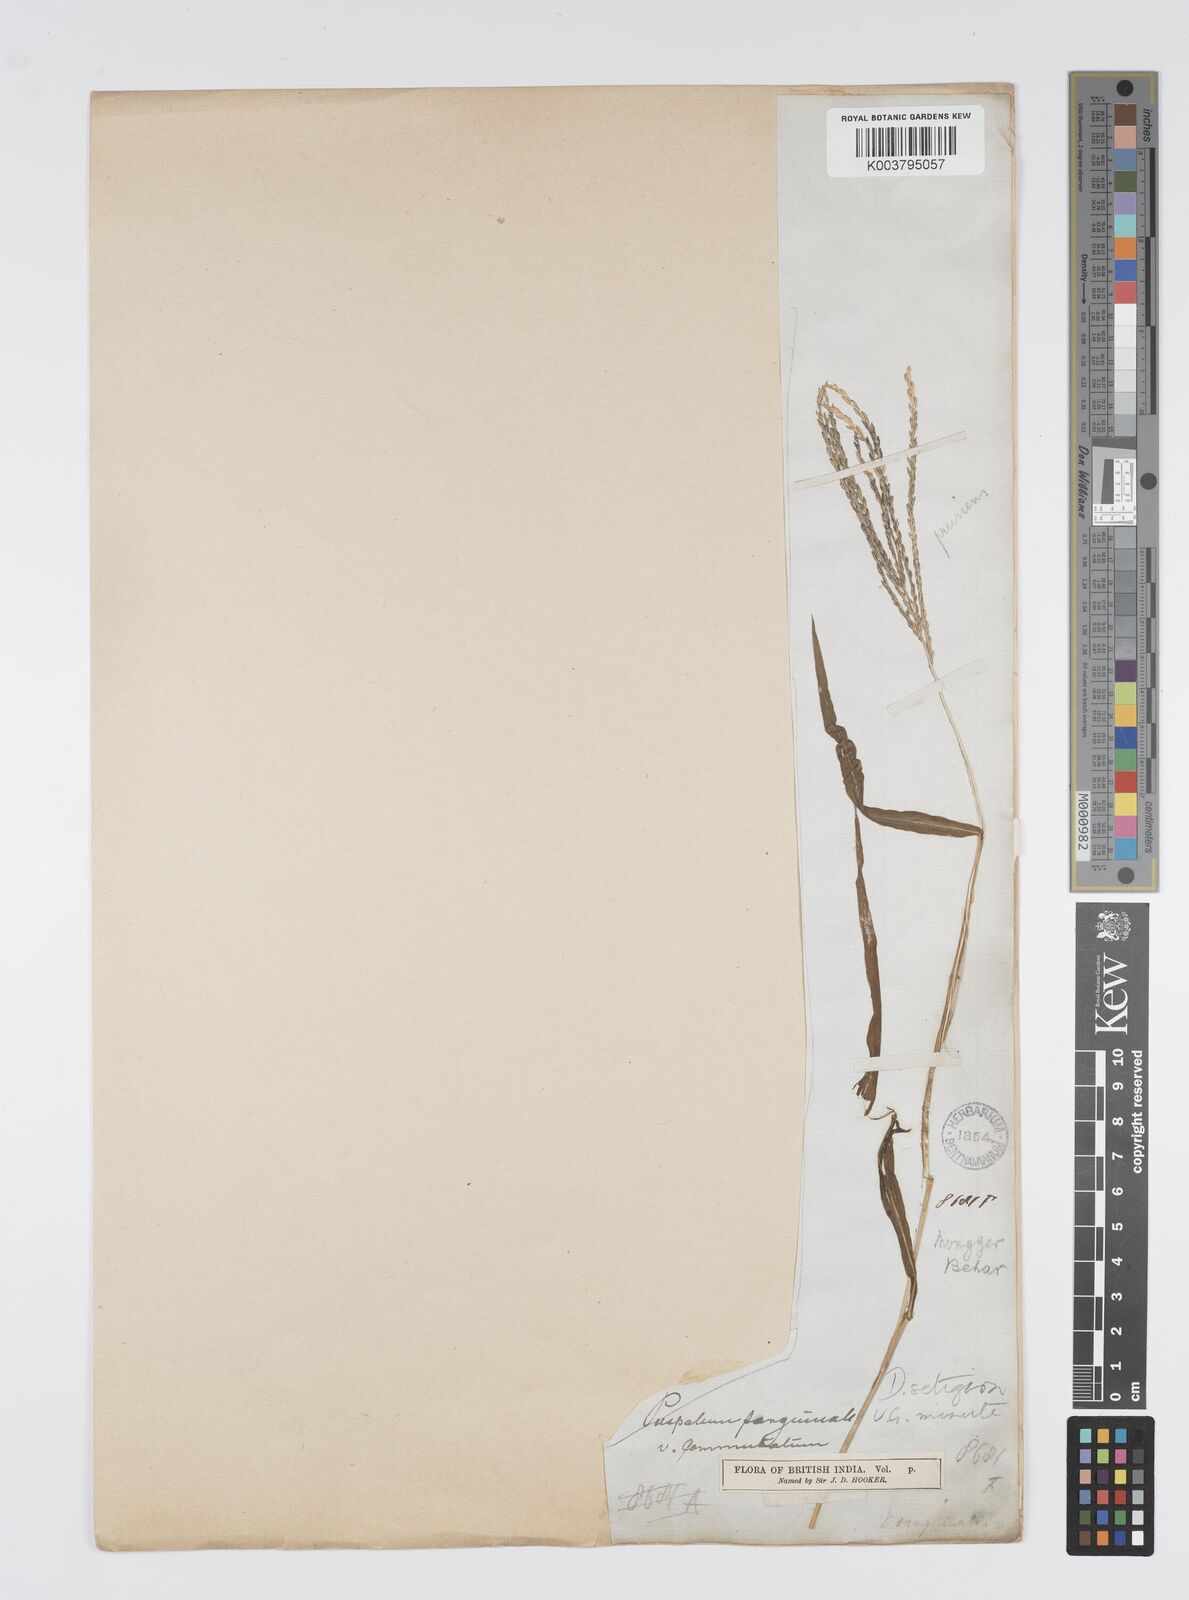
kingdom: Plantae
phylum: Tracheophyta
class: Liliopsida
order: Poales
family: Poaceae
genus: Digitaria
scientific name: Digitaria setigera
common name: East indian crabgrass
